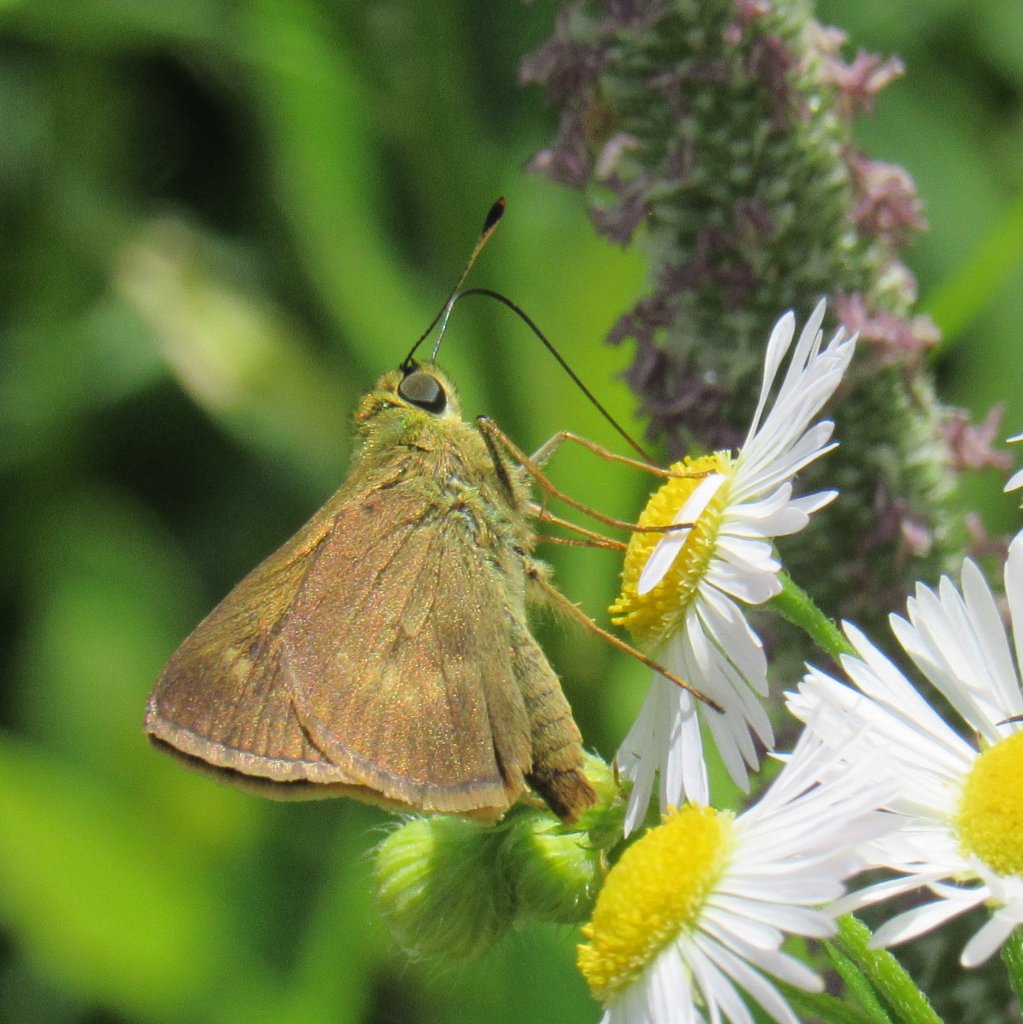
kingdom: Animalia
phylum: Arthropoda
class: Insecta
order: Lepidoptera
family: Hesperiidae
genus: Polites
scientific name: Polites egeremet
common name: Northern Broken-Dash
